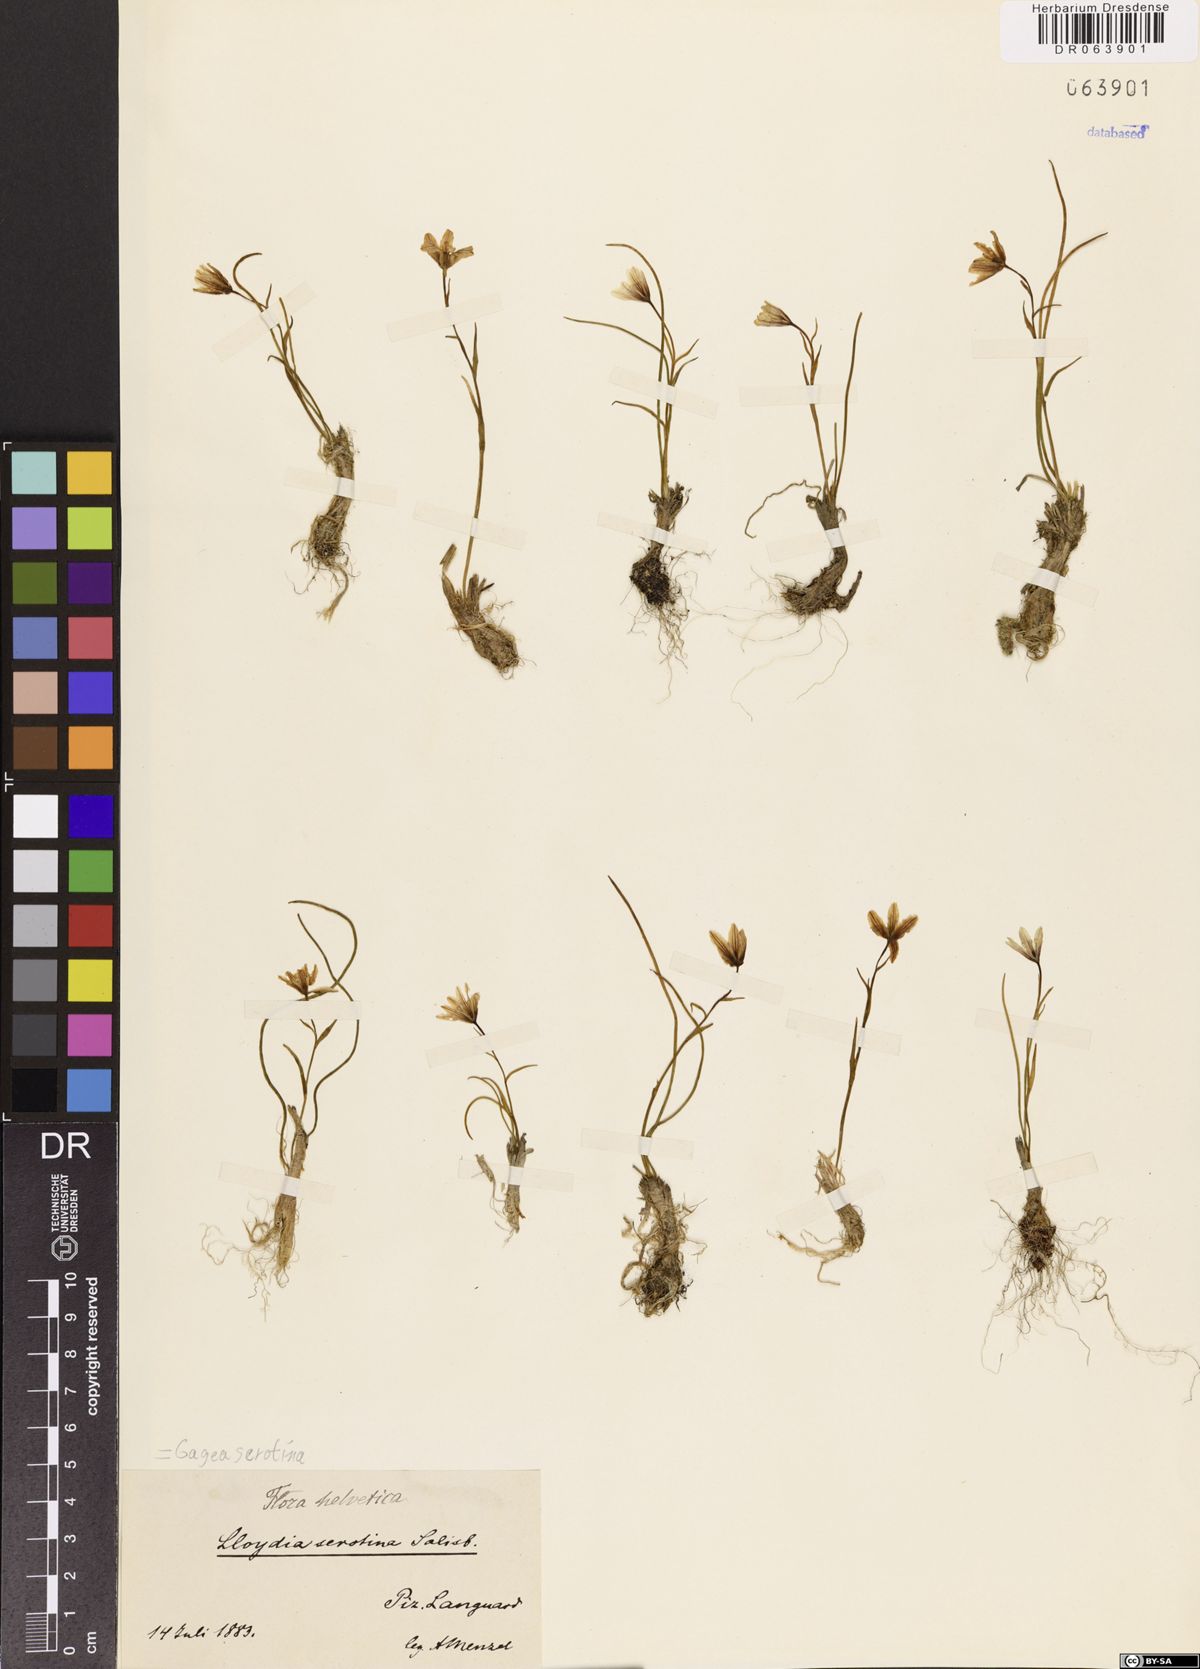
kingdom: Plantae
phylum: Tracheophyta
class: Liliopsida
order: Liliales
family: Liliaceae
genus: Gagea
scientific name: Gagea serotina
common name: Snowdon lily
